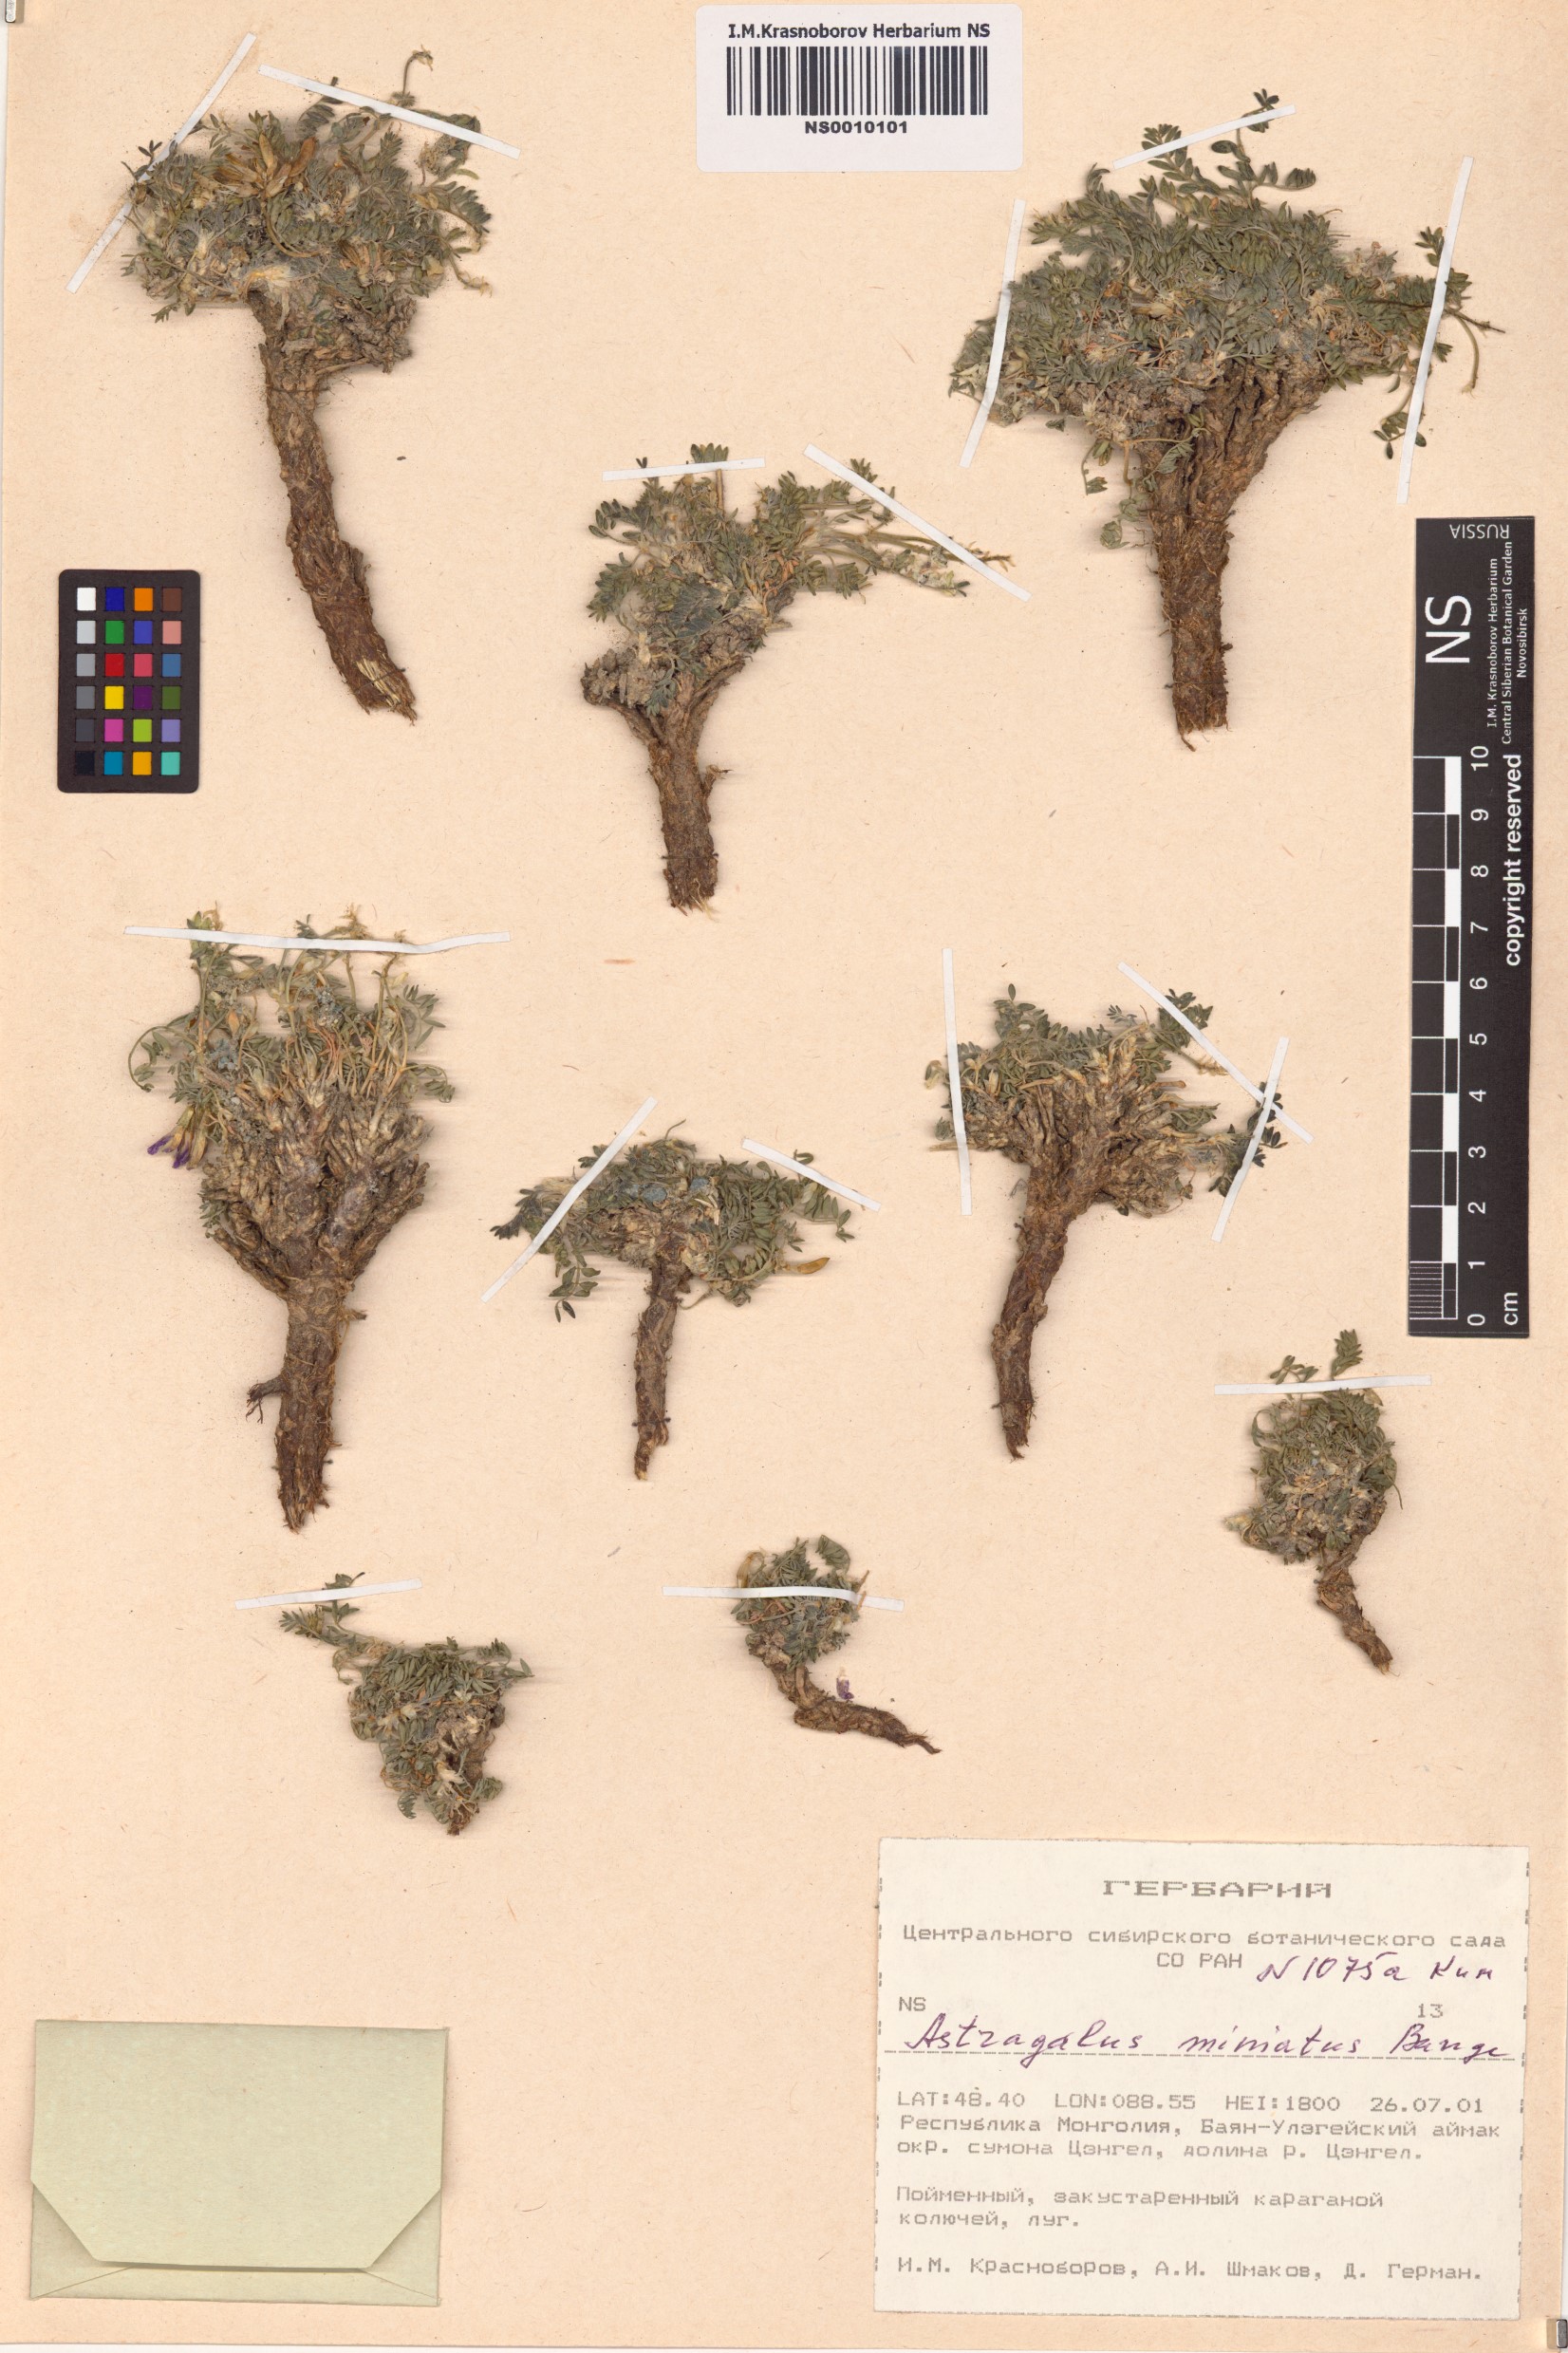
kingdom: Plantae
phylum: Tracheophyta
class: Magnoliopsida
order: Fabales
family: Fabaceae
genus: Astragalus
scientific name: Astragalus miniatus
